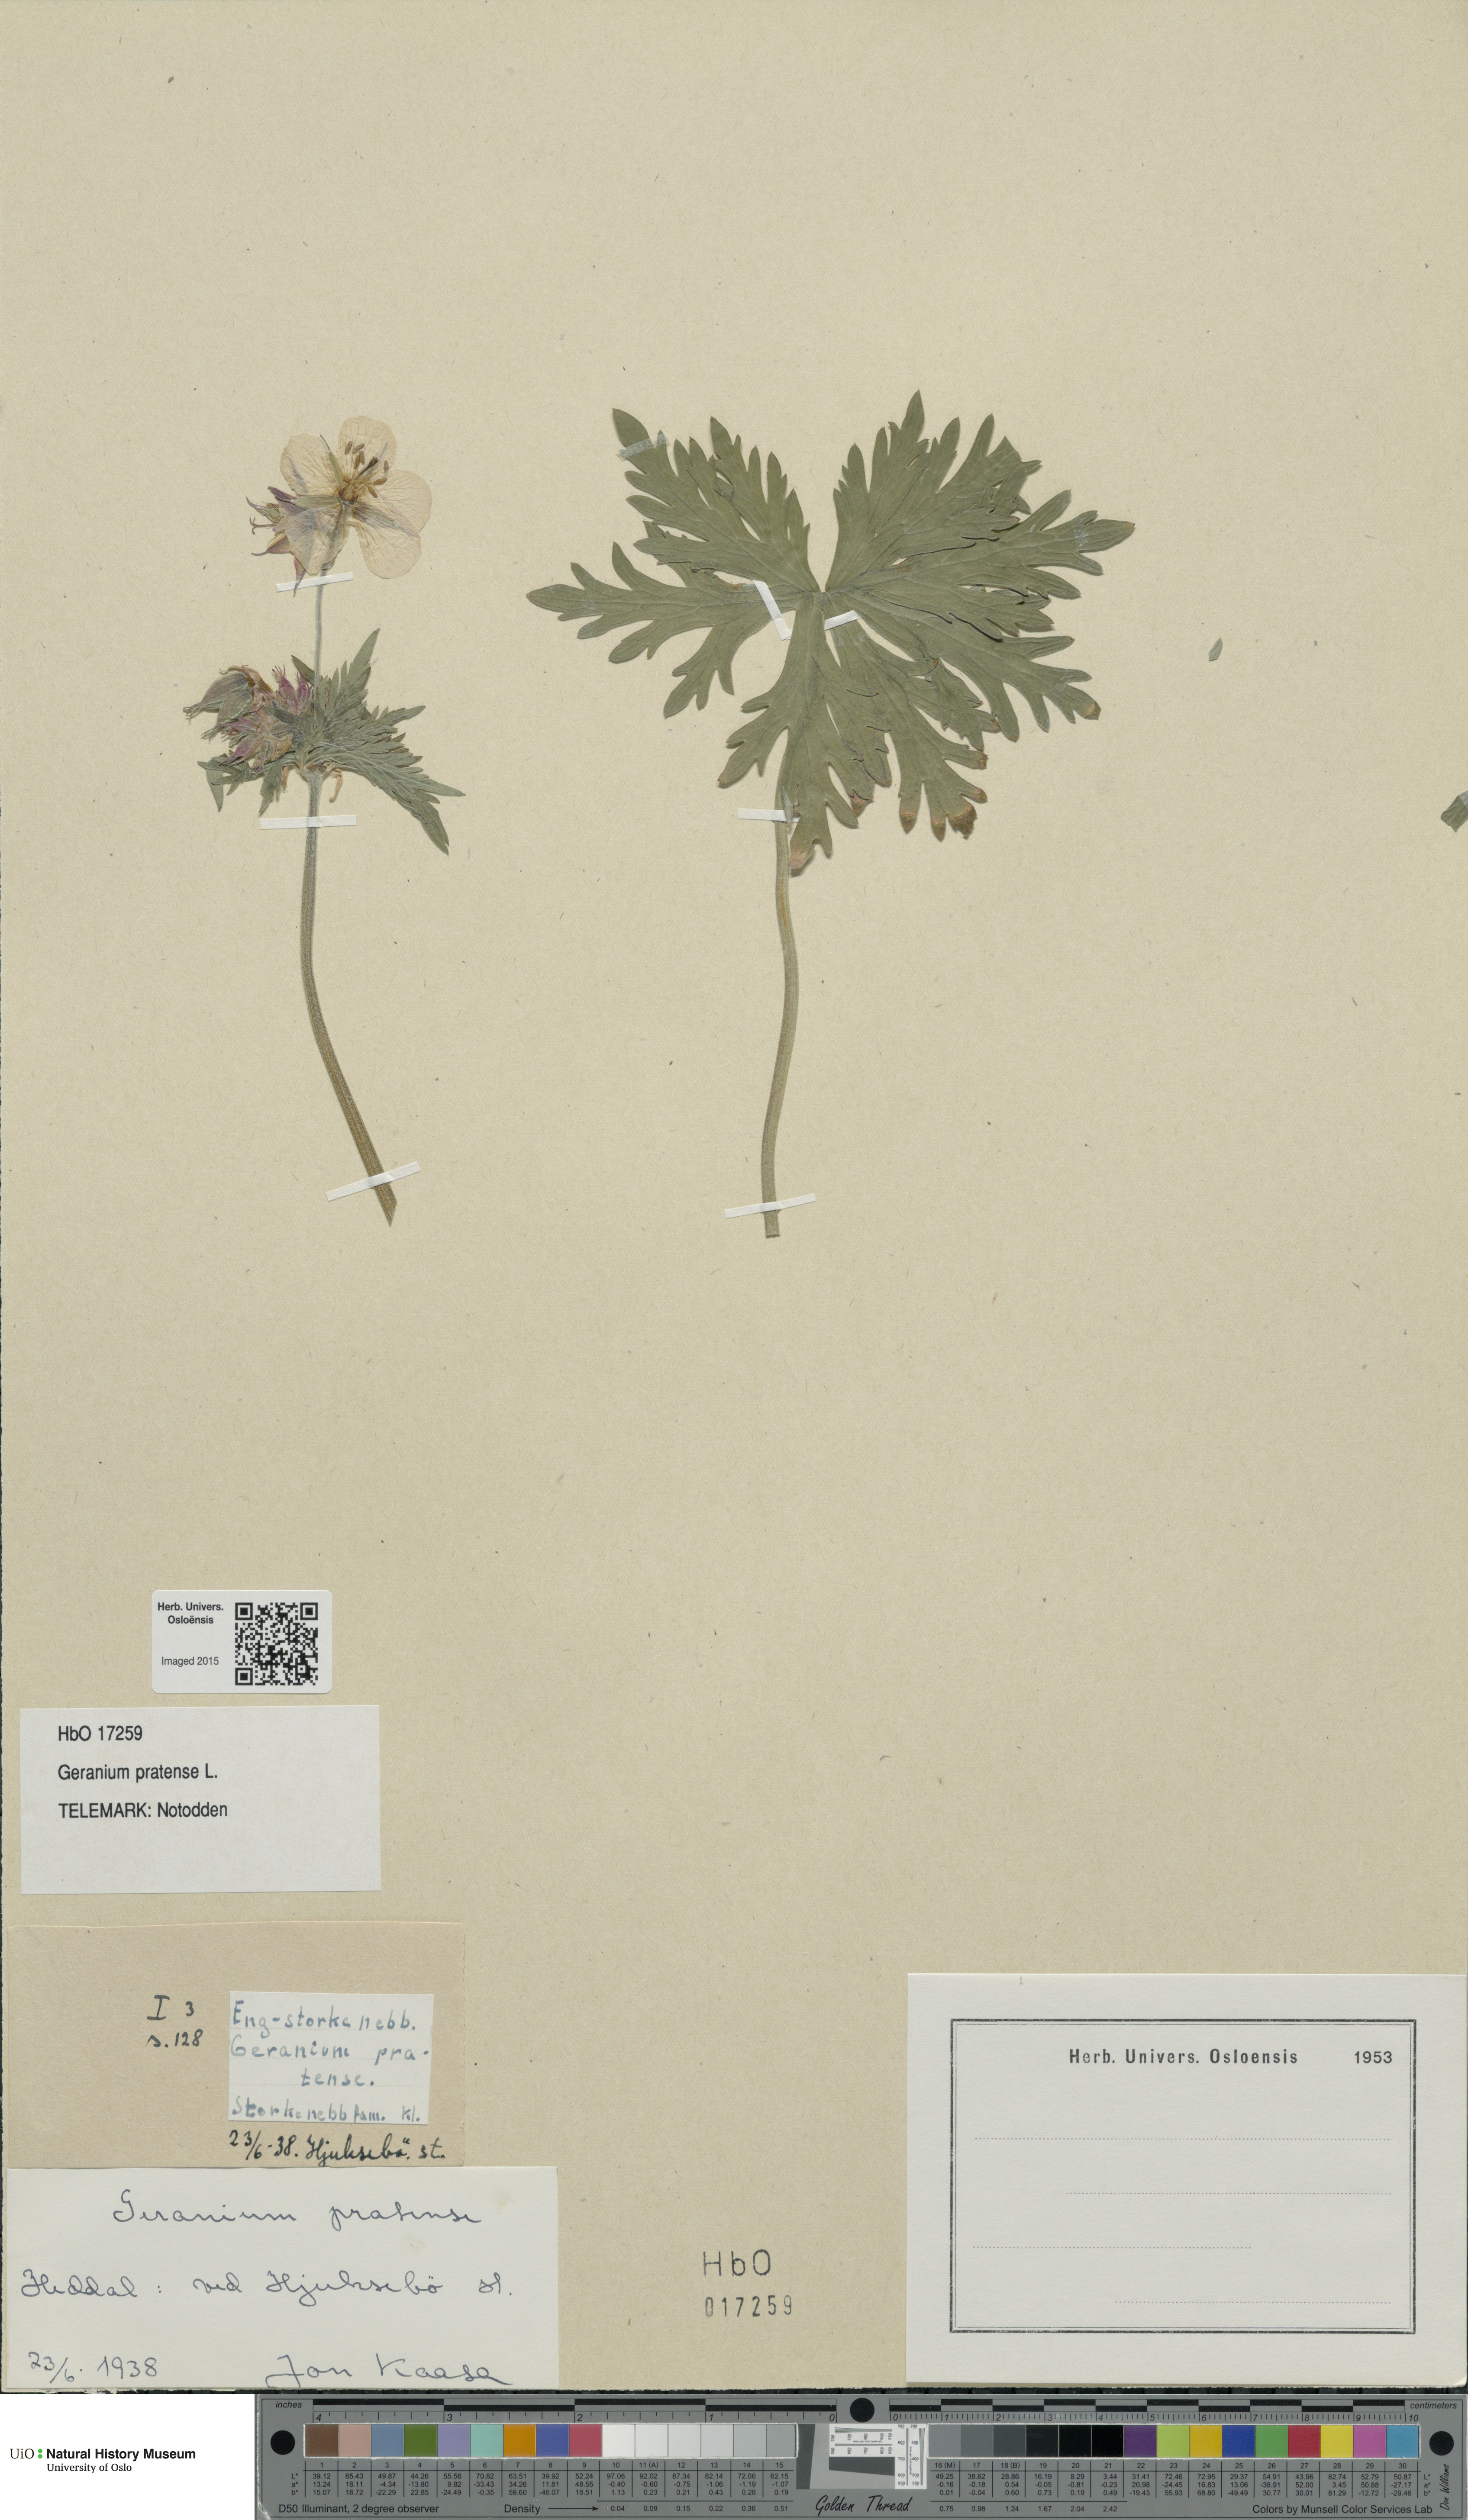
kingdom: Plantae
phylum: Tracheophyta
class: Magnoliopsida
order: Geraniales
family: Geraniaceae
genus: Geranium
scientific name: Geranium pratense
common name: Meadow crane's-bill
